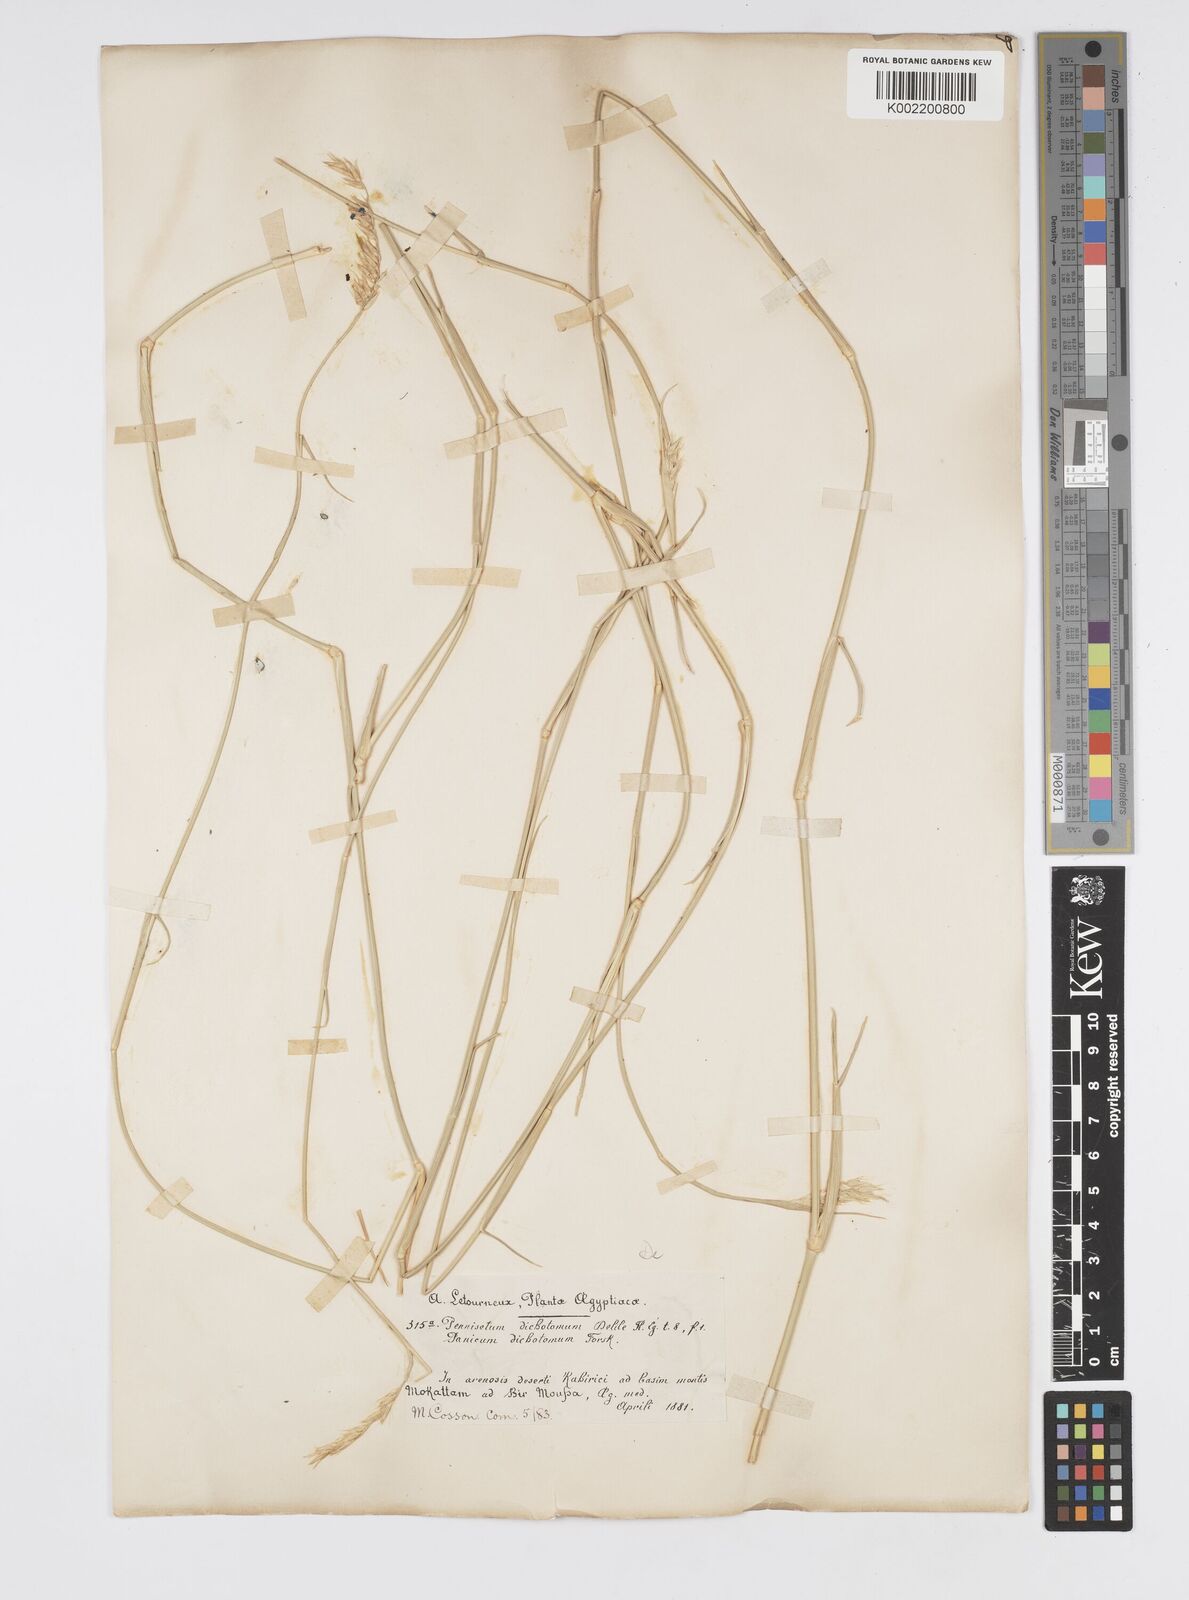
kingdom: Plantae
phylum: Tracheophyta
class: Liliopsida
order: Poales
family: Poaceae
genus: Cenchrus
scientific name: Cenchrus divisus
